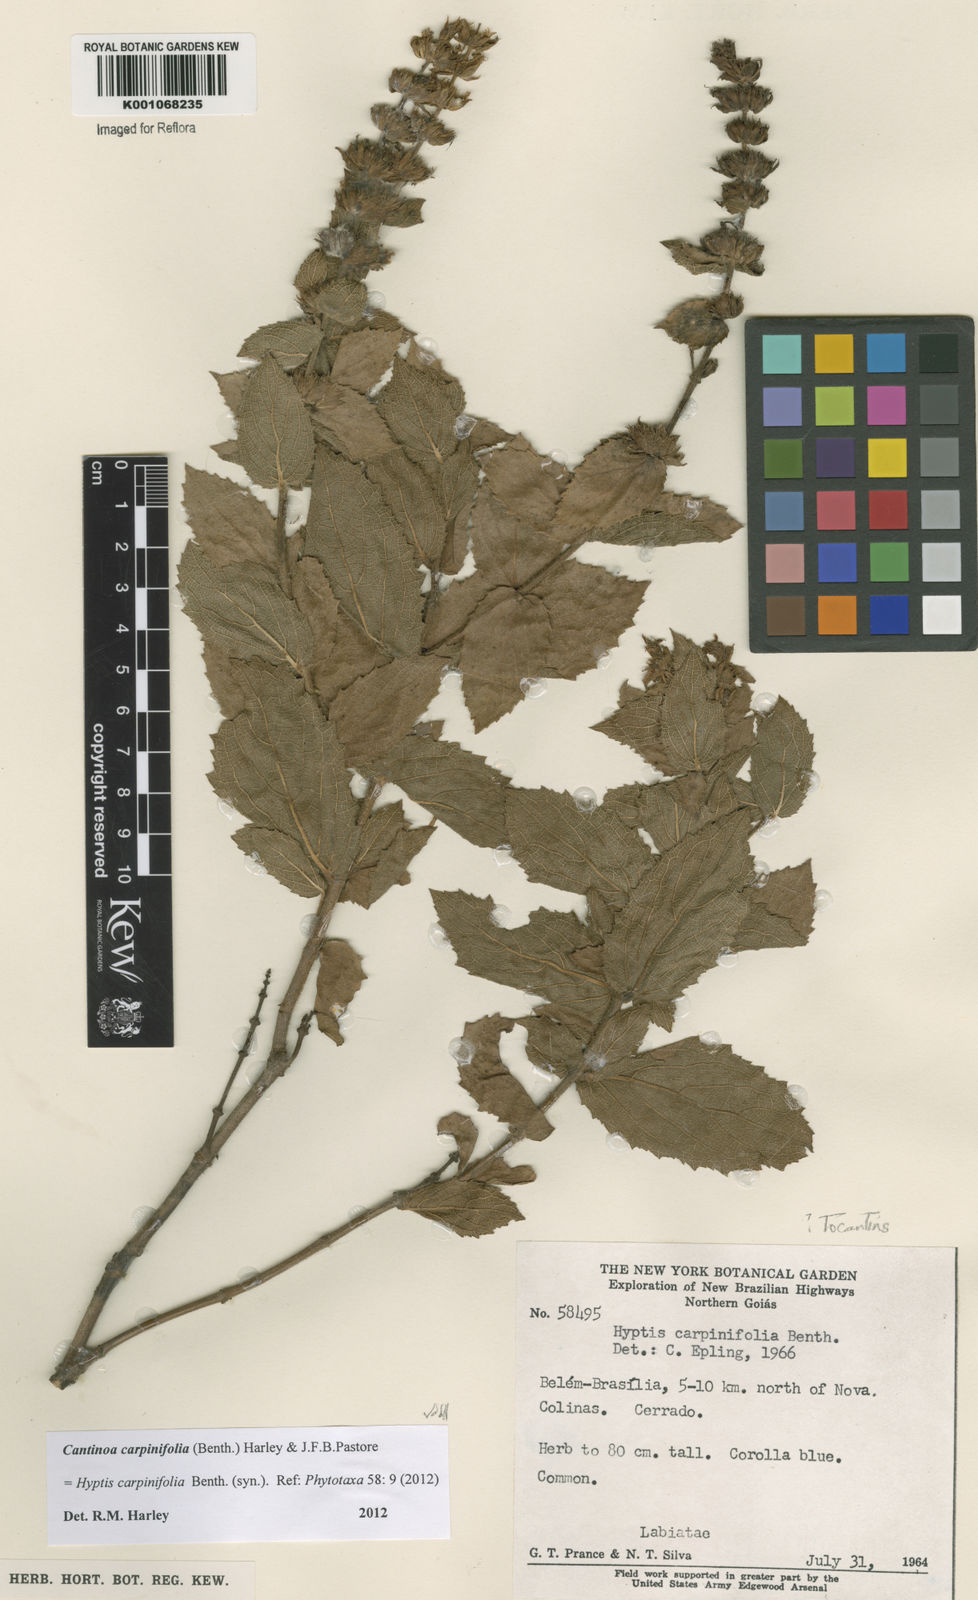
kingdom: Plantae
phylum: Tracheophyta
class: Magnoliopsida
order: Lamiales
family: Lamiaceae
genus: Cantinoa
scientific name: Cantinoa carpinifolia
